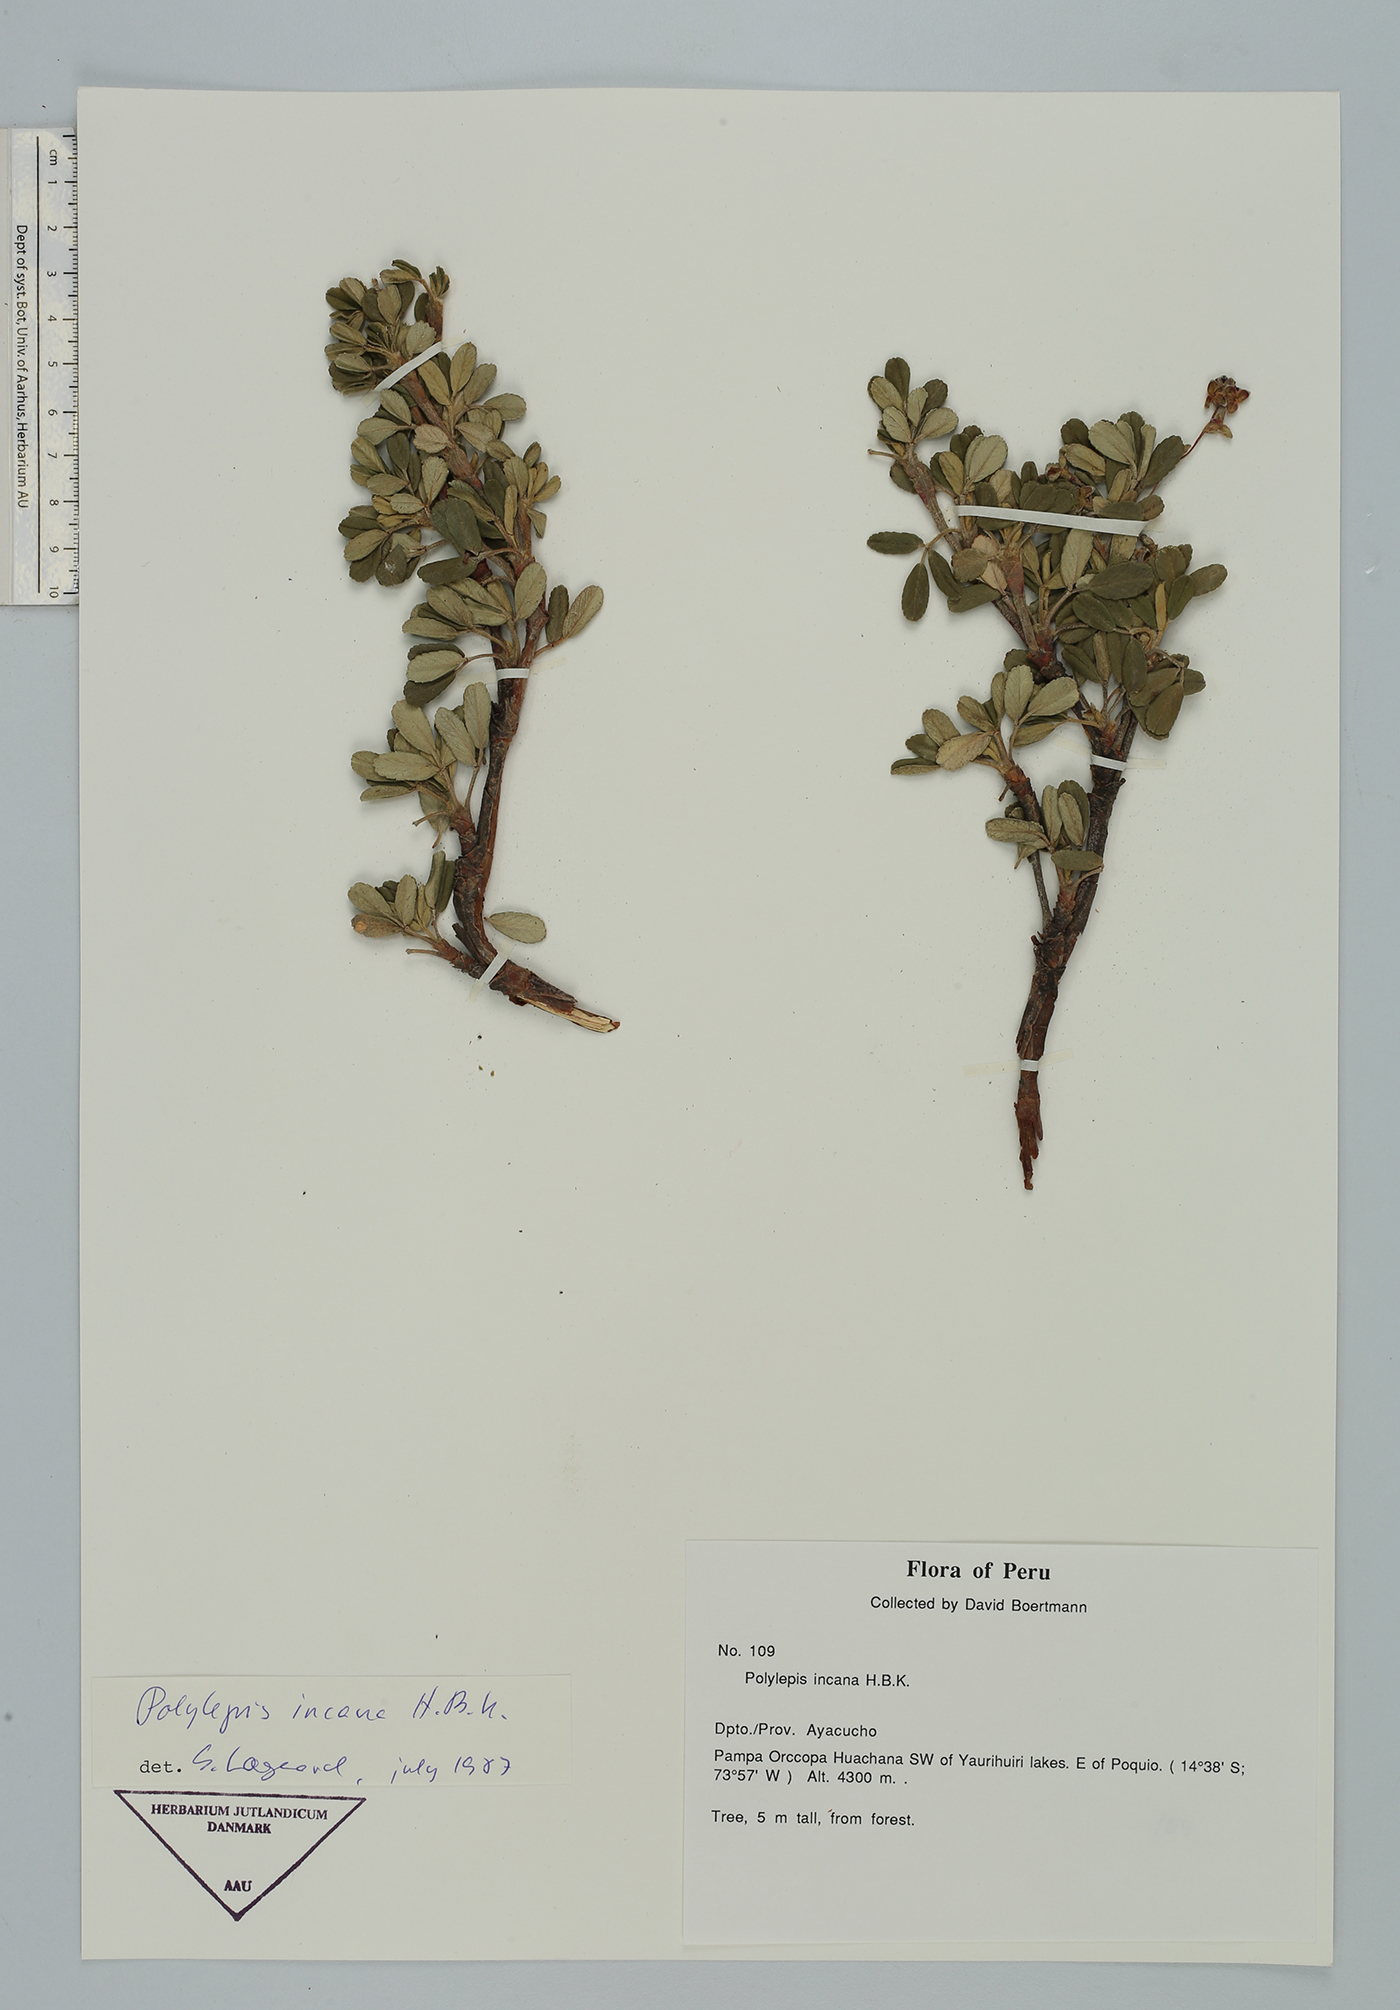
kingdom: Plantae
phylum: Tracheophyta
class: Magnoliopsida
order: Rosales
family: Rosaceae
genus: Polylepis
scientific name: Polylepis tomentella
